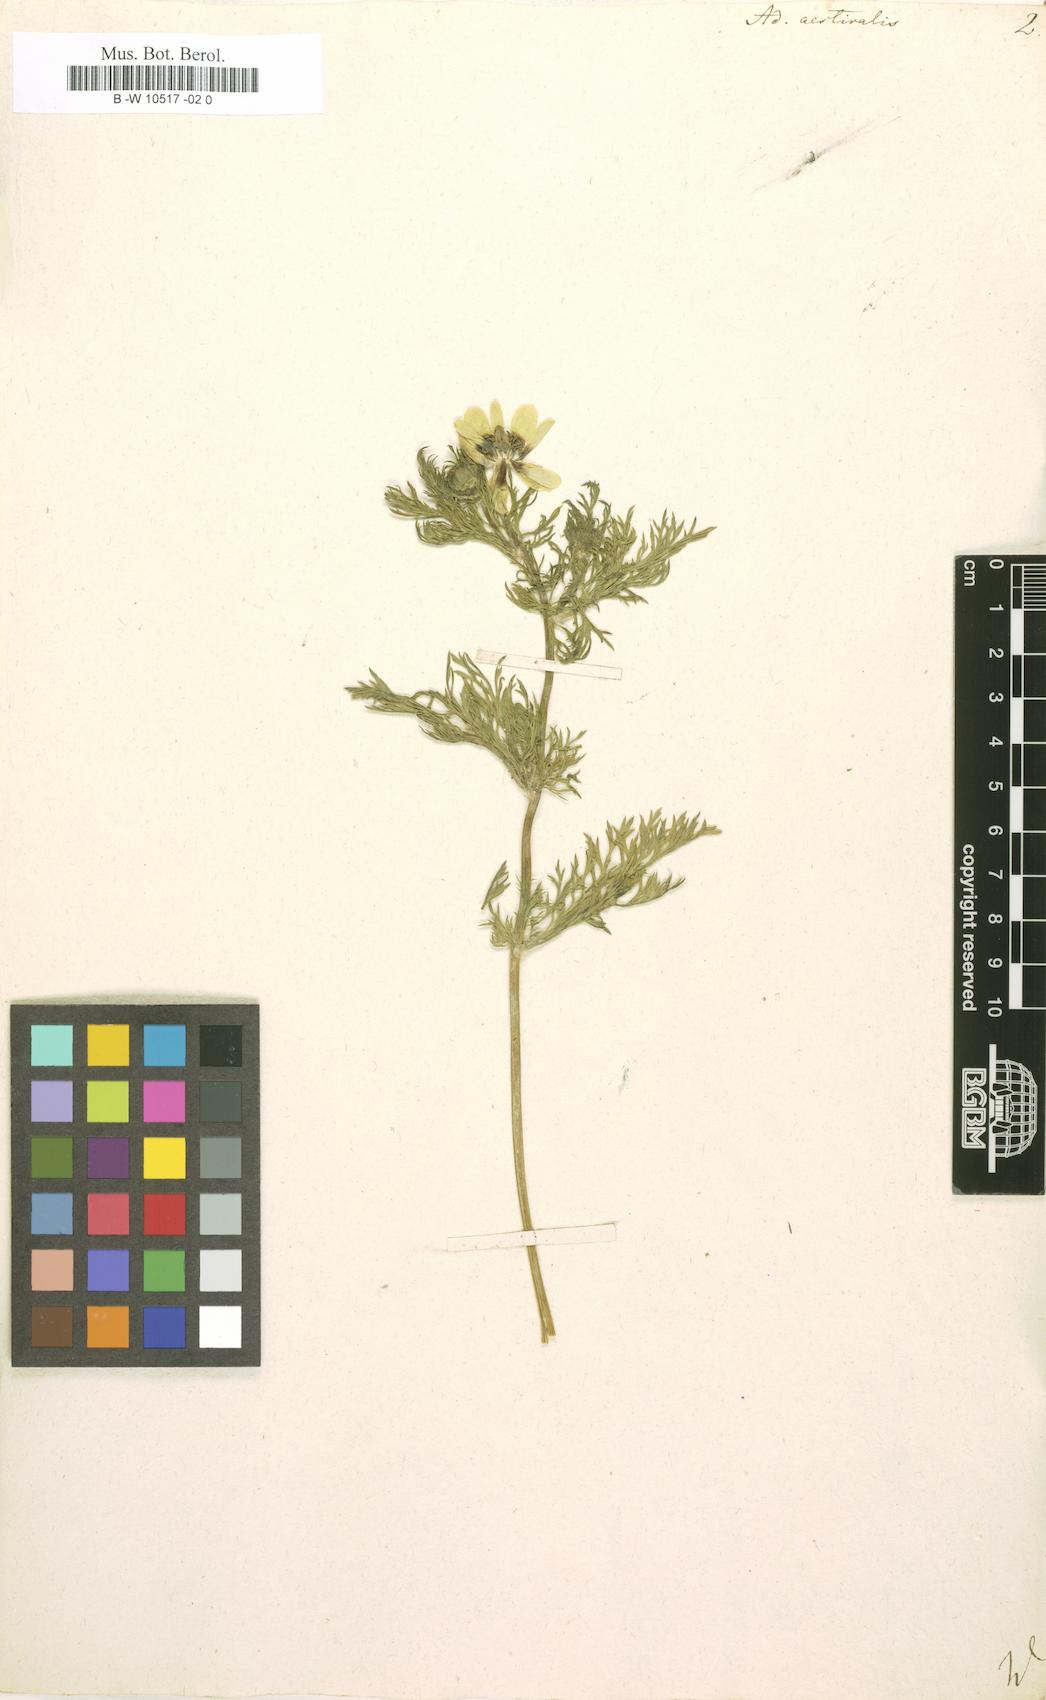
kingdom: Plantae
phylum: Tracheophyta
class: Magnoliopsida
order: Ranunculales
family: Ranunculaceae
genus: Adonis
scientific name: Adonis aestivalis
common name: Summer pheasant's-eye
